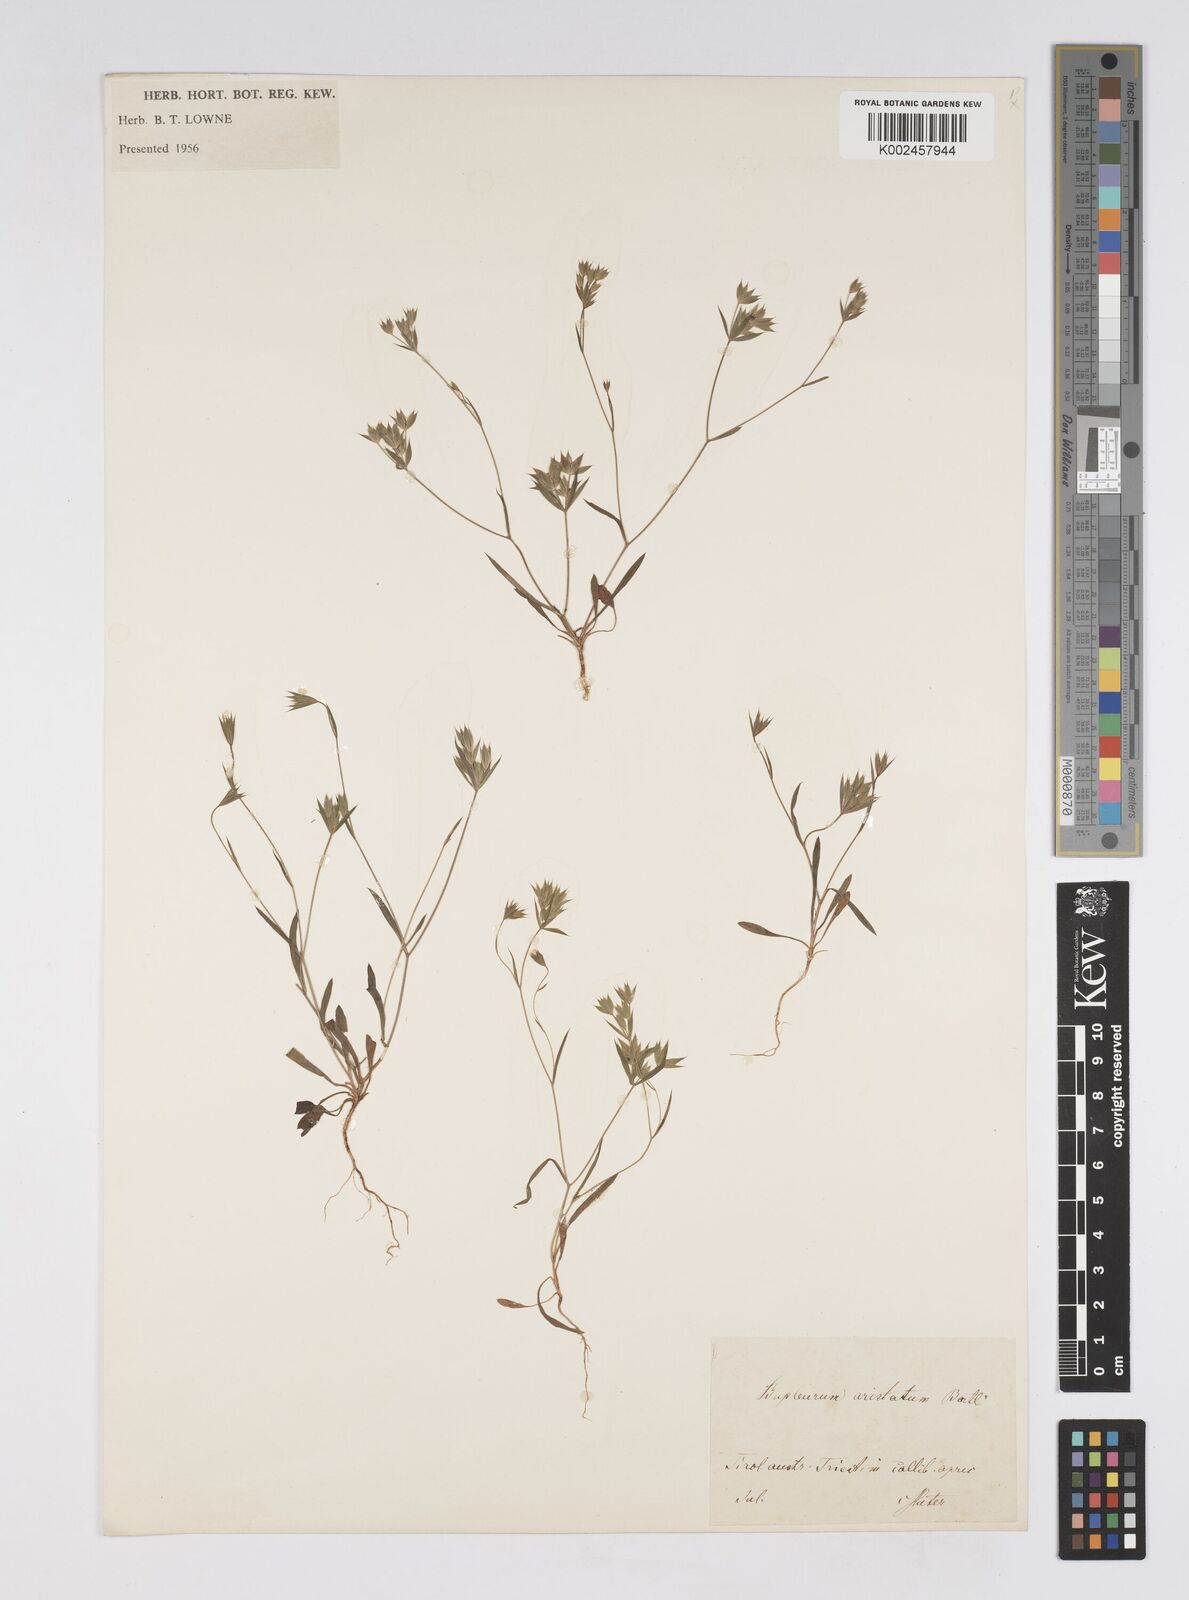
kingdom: Plantae
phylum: Tracheophyta
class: Magnoliopsida
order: Apiales
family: Apiaceae
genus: Bupleurum
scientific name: Bupleurum glumaceum
